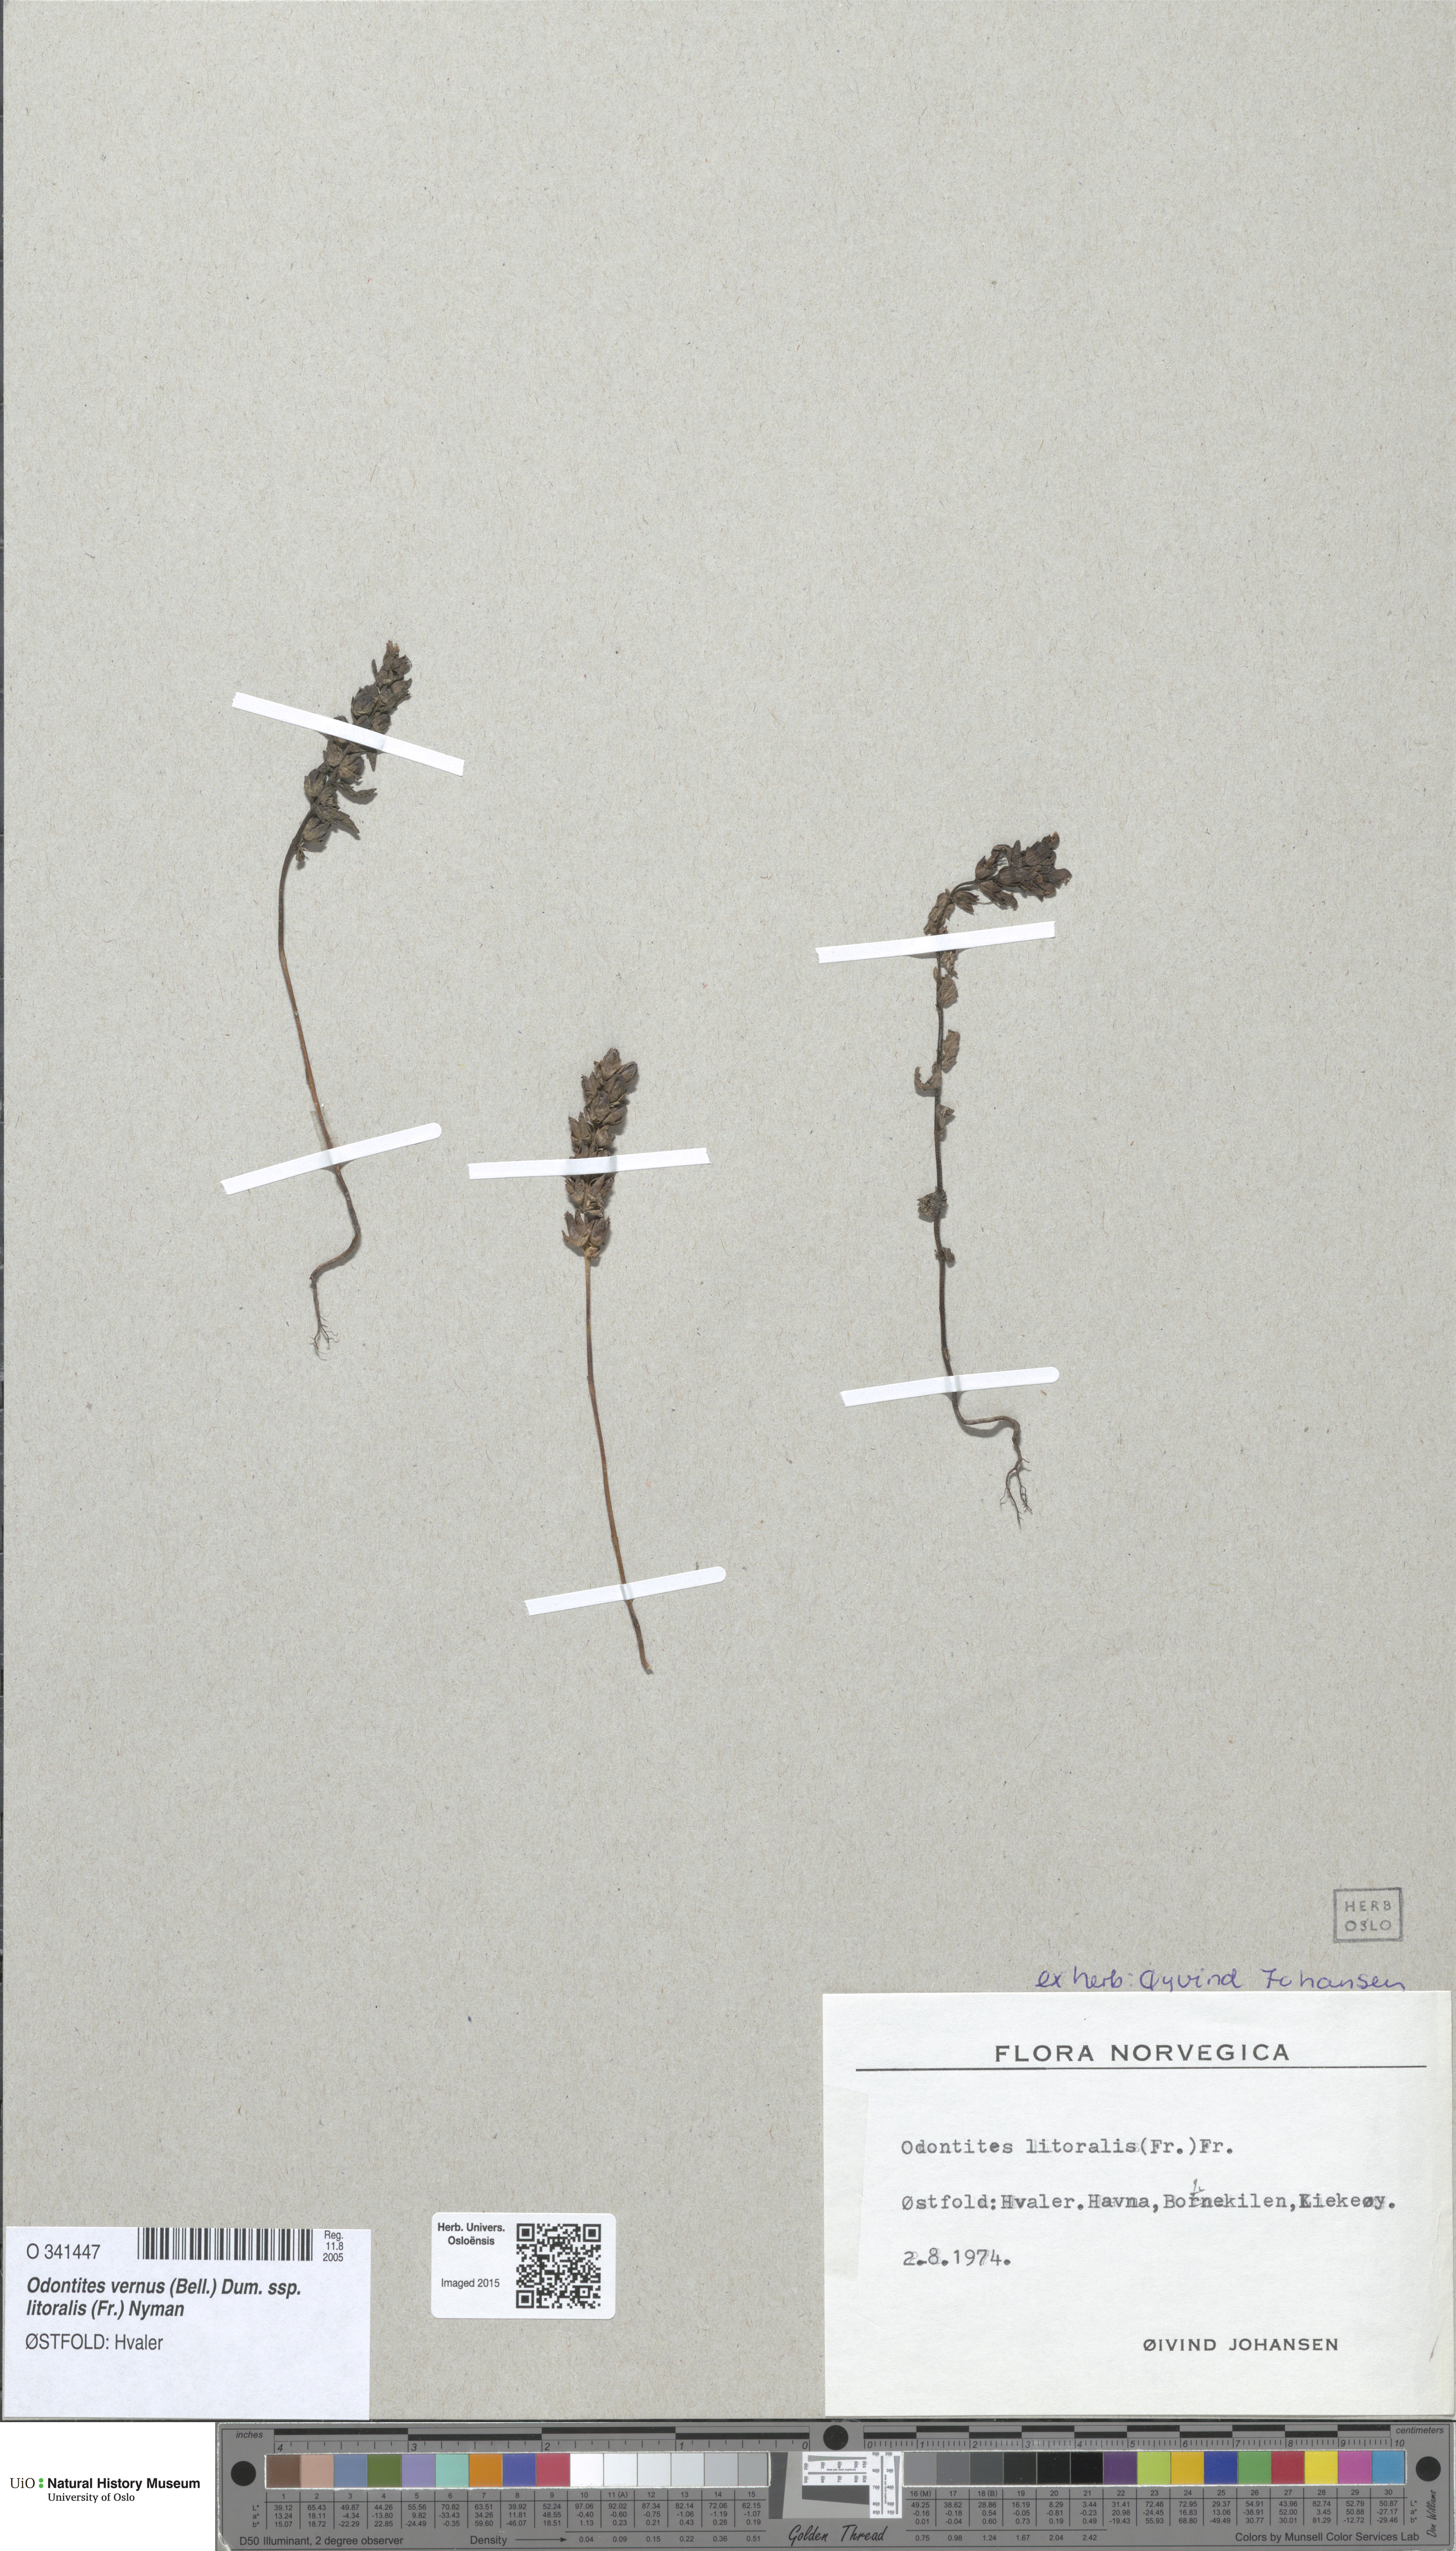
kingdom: Plantae
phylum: Tracheophyta
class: Magnoliopsida
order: Lamiales
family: Orobanchaceae
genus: Odontites
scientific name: Odontites litoralis
